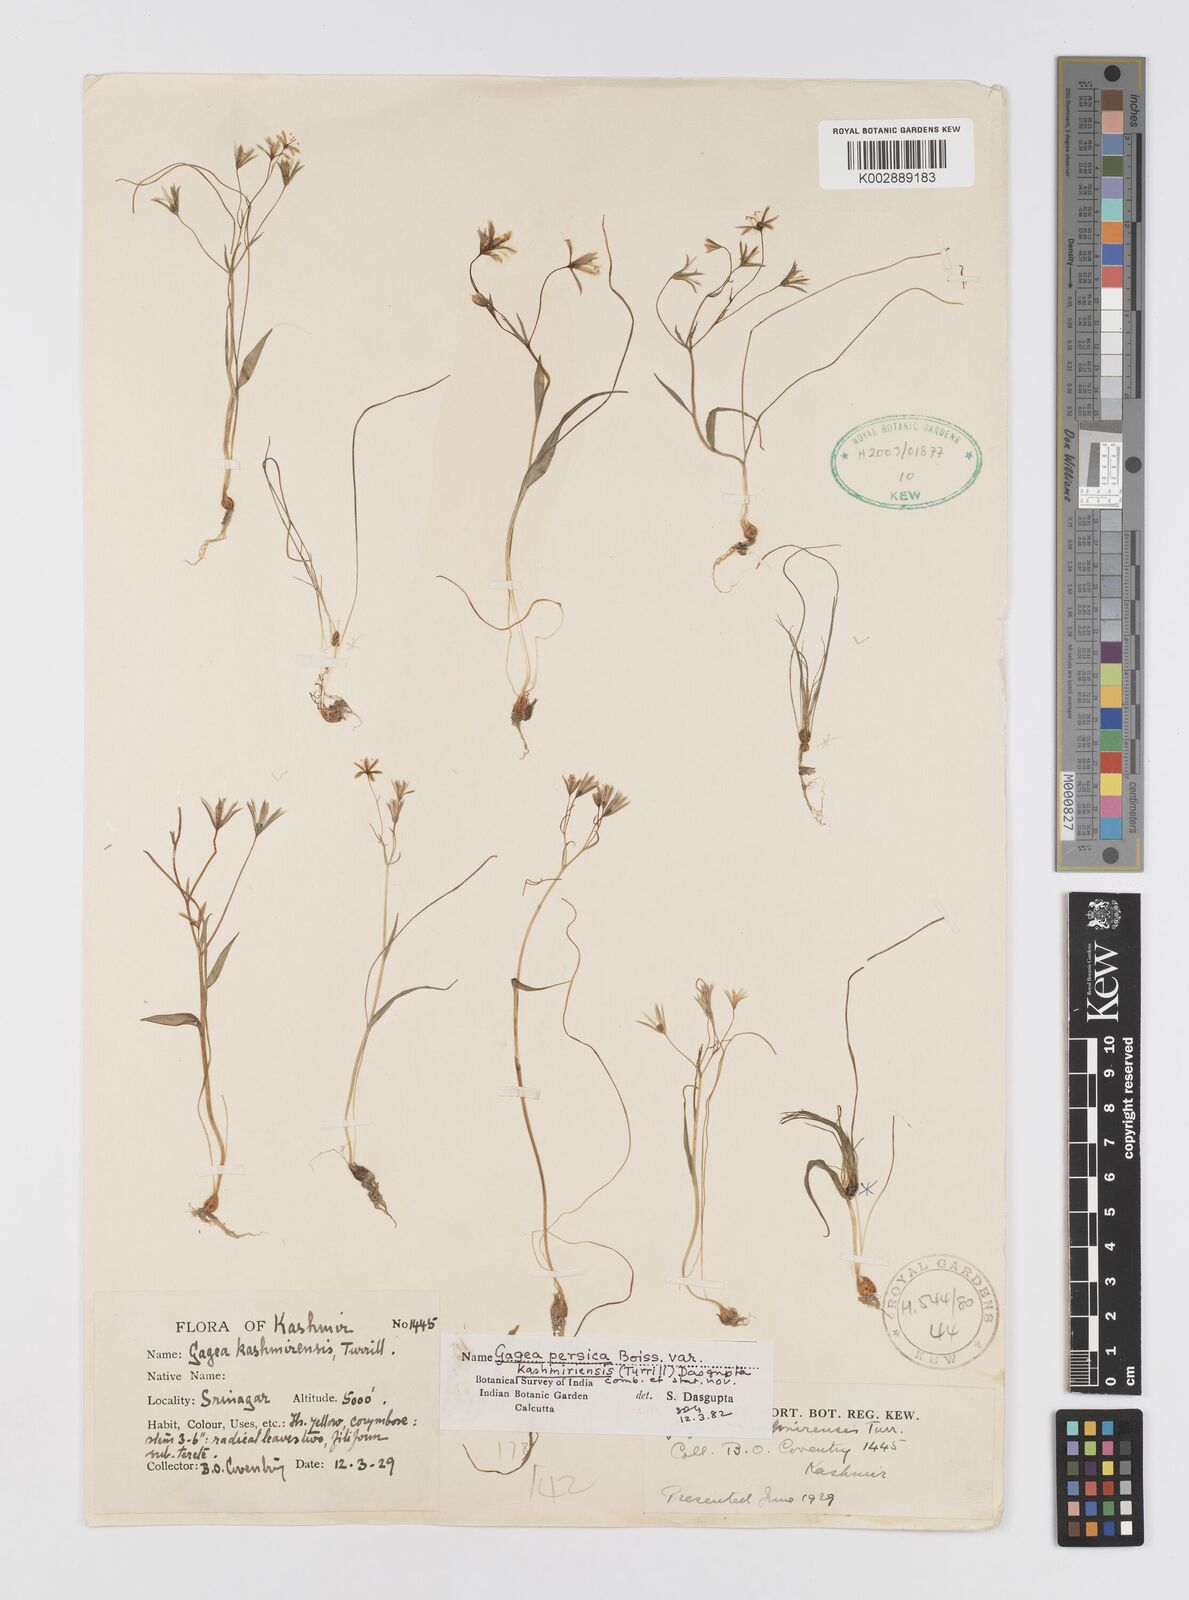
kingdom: Plantae
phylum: Tracheophyta
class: Liliopsida
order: Liliales
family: Liliaceae
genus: Gagea
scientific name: Gagea tenera
